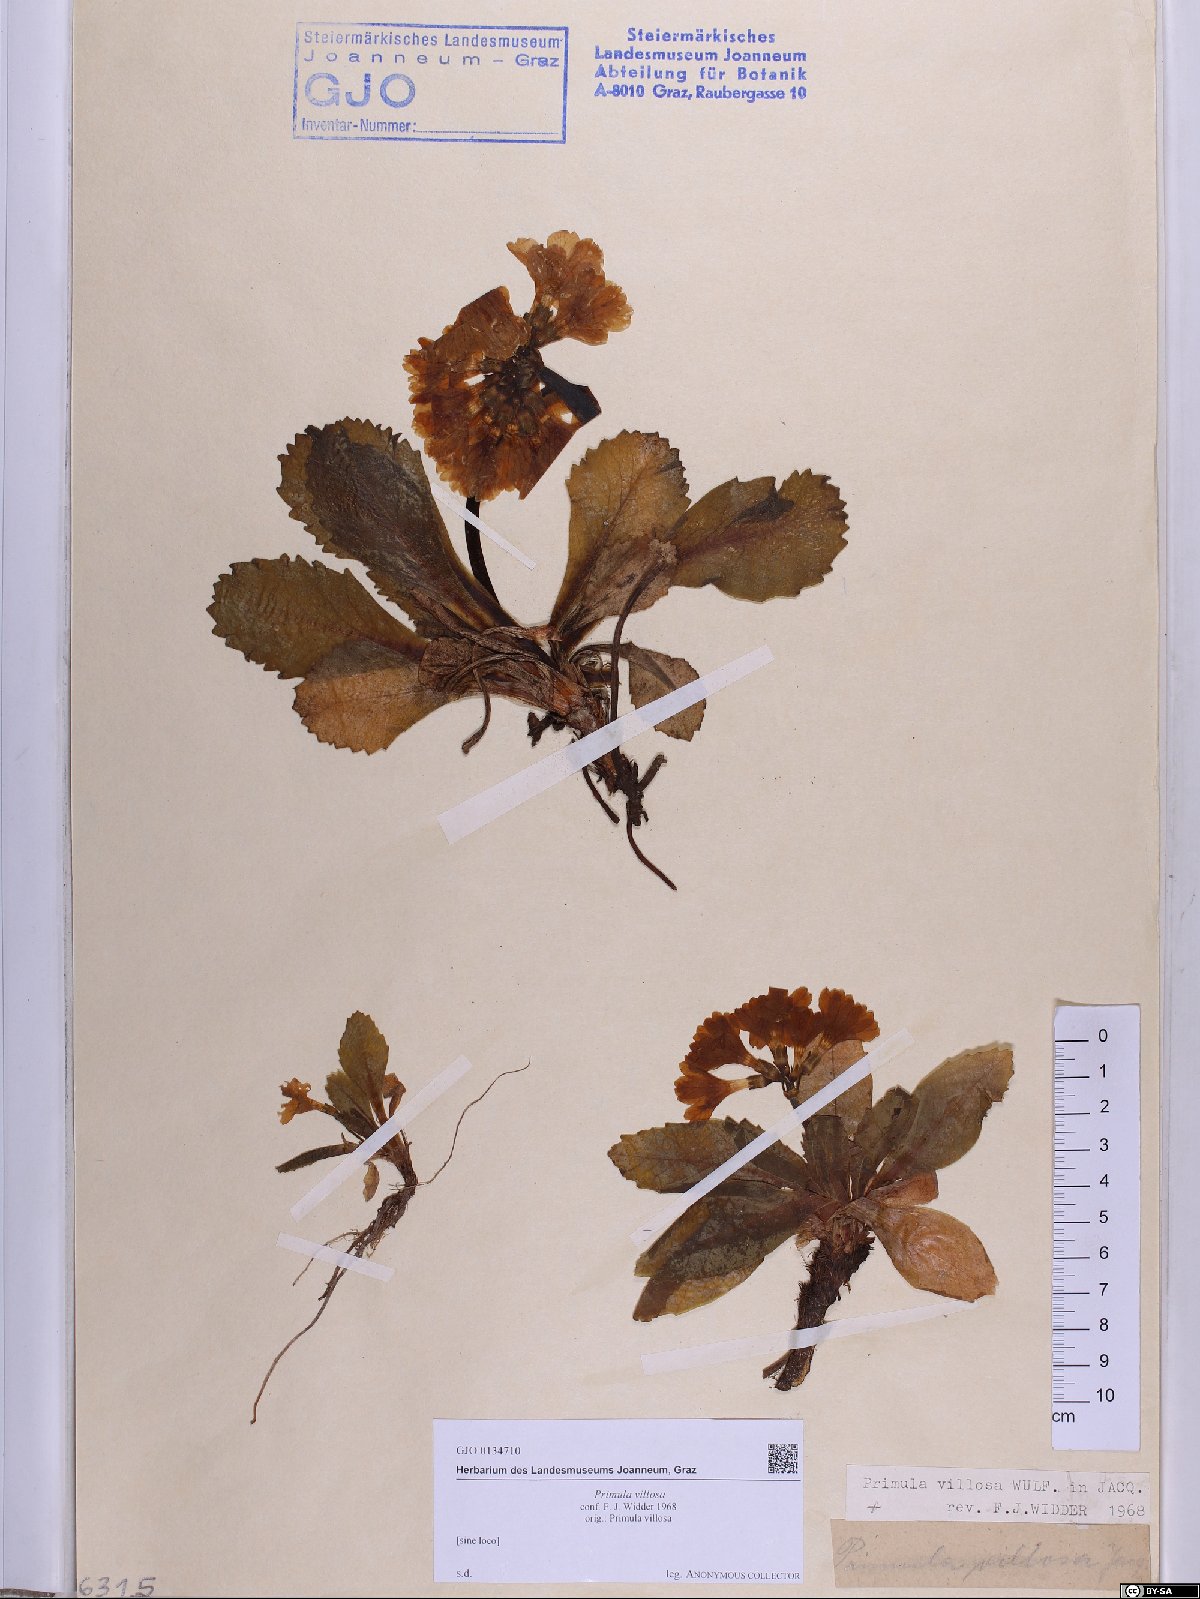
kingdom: Plantae
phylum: Tracheophyta
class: Magnoliopsida
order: Ericales
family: Primulaceae
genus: Primula
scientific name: Primula villosa
